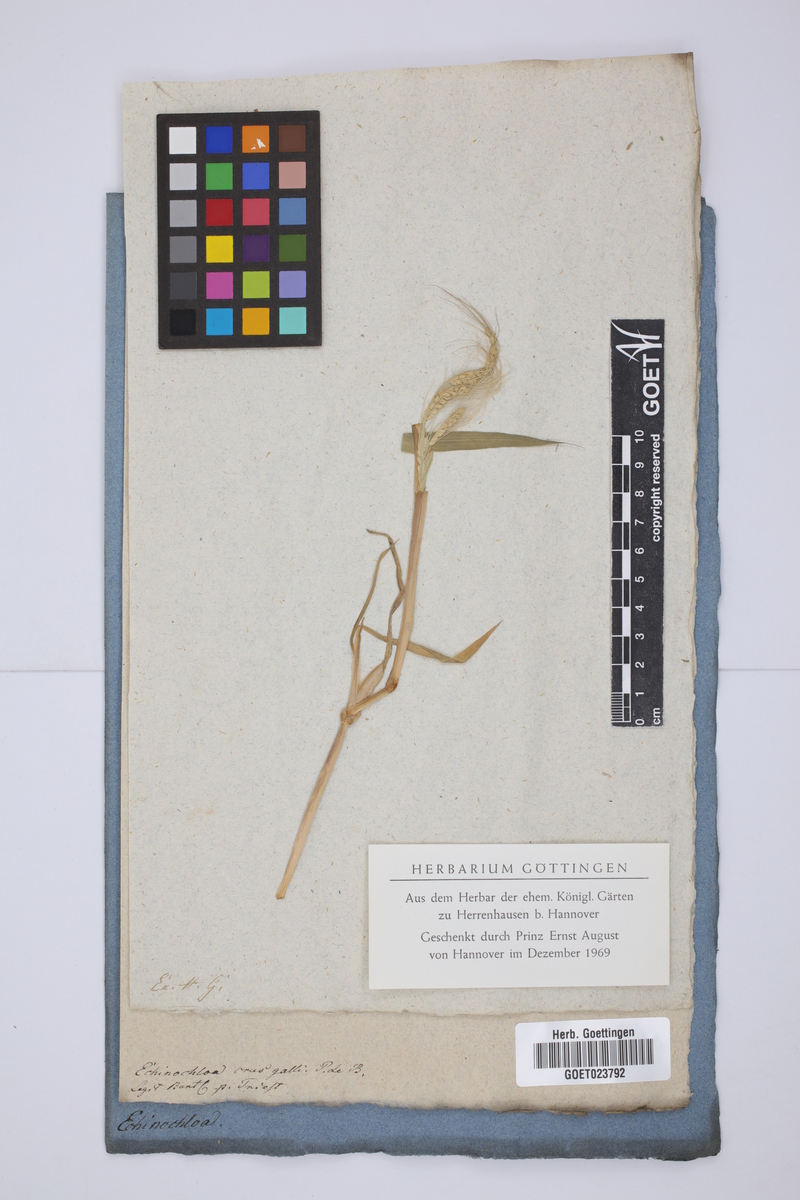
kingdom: Plantae
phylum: Tracheophyta
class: Liliopsida
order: Poales
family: Poaceae
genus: Echinochloa
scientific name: Echinochloa crus-galli
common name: Cockspur
